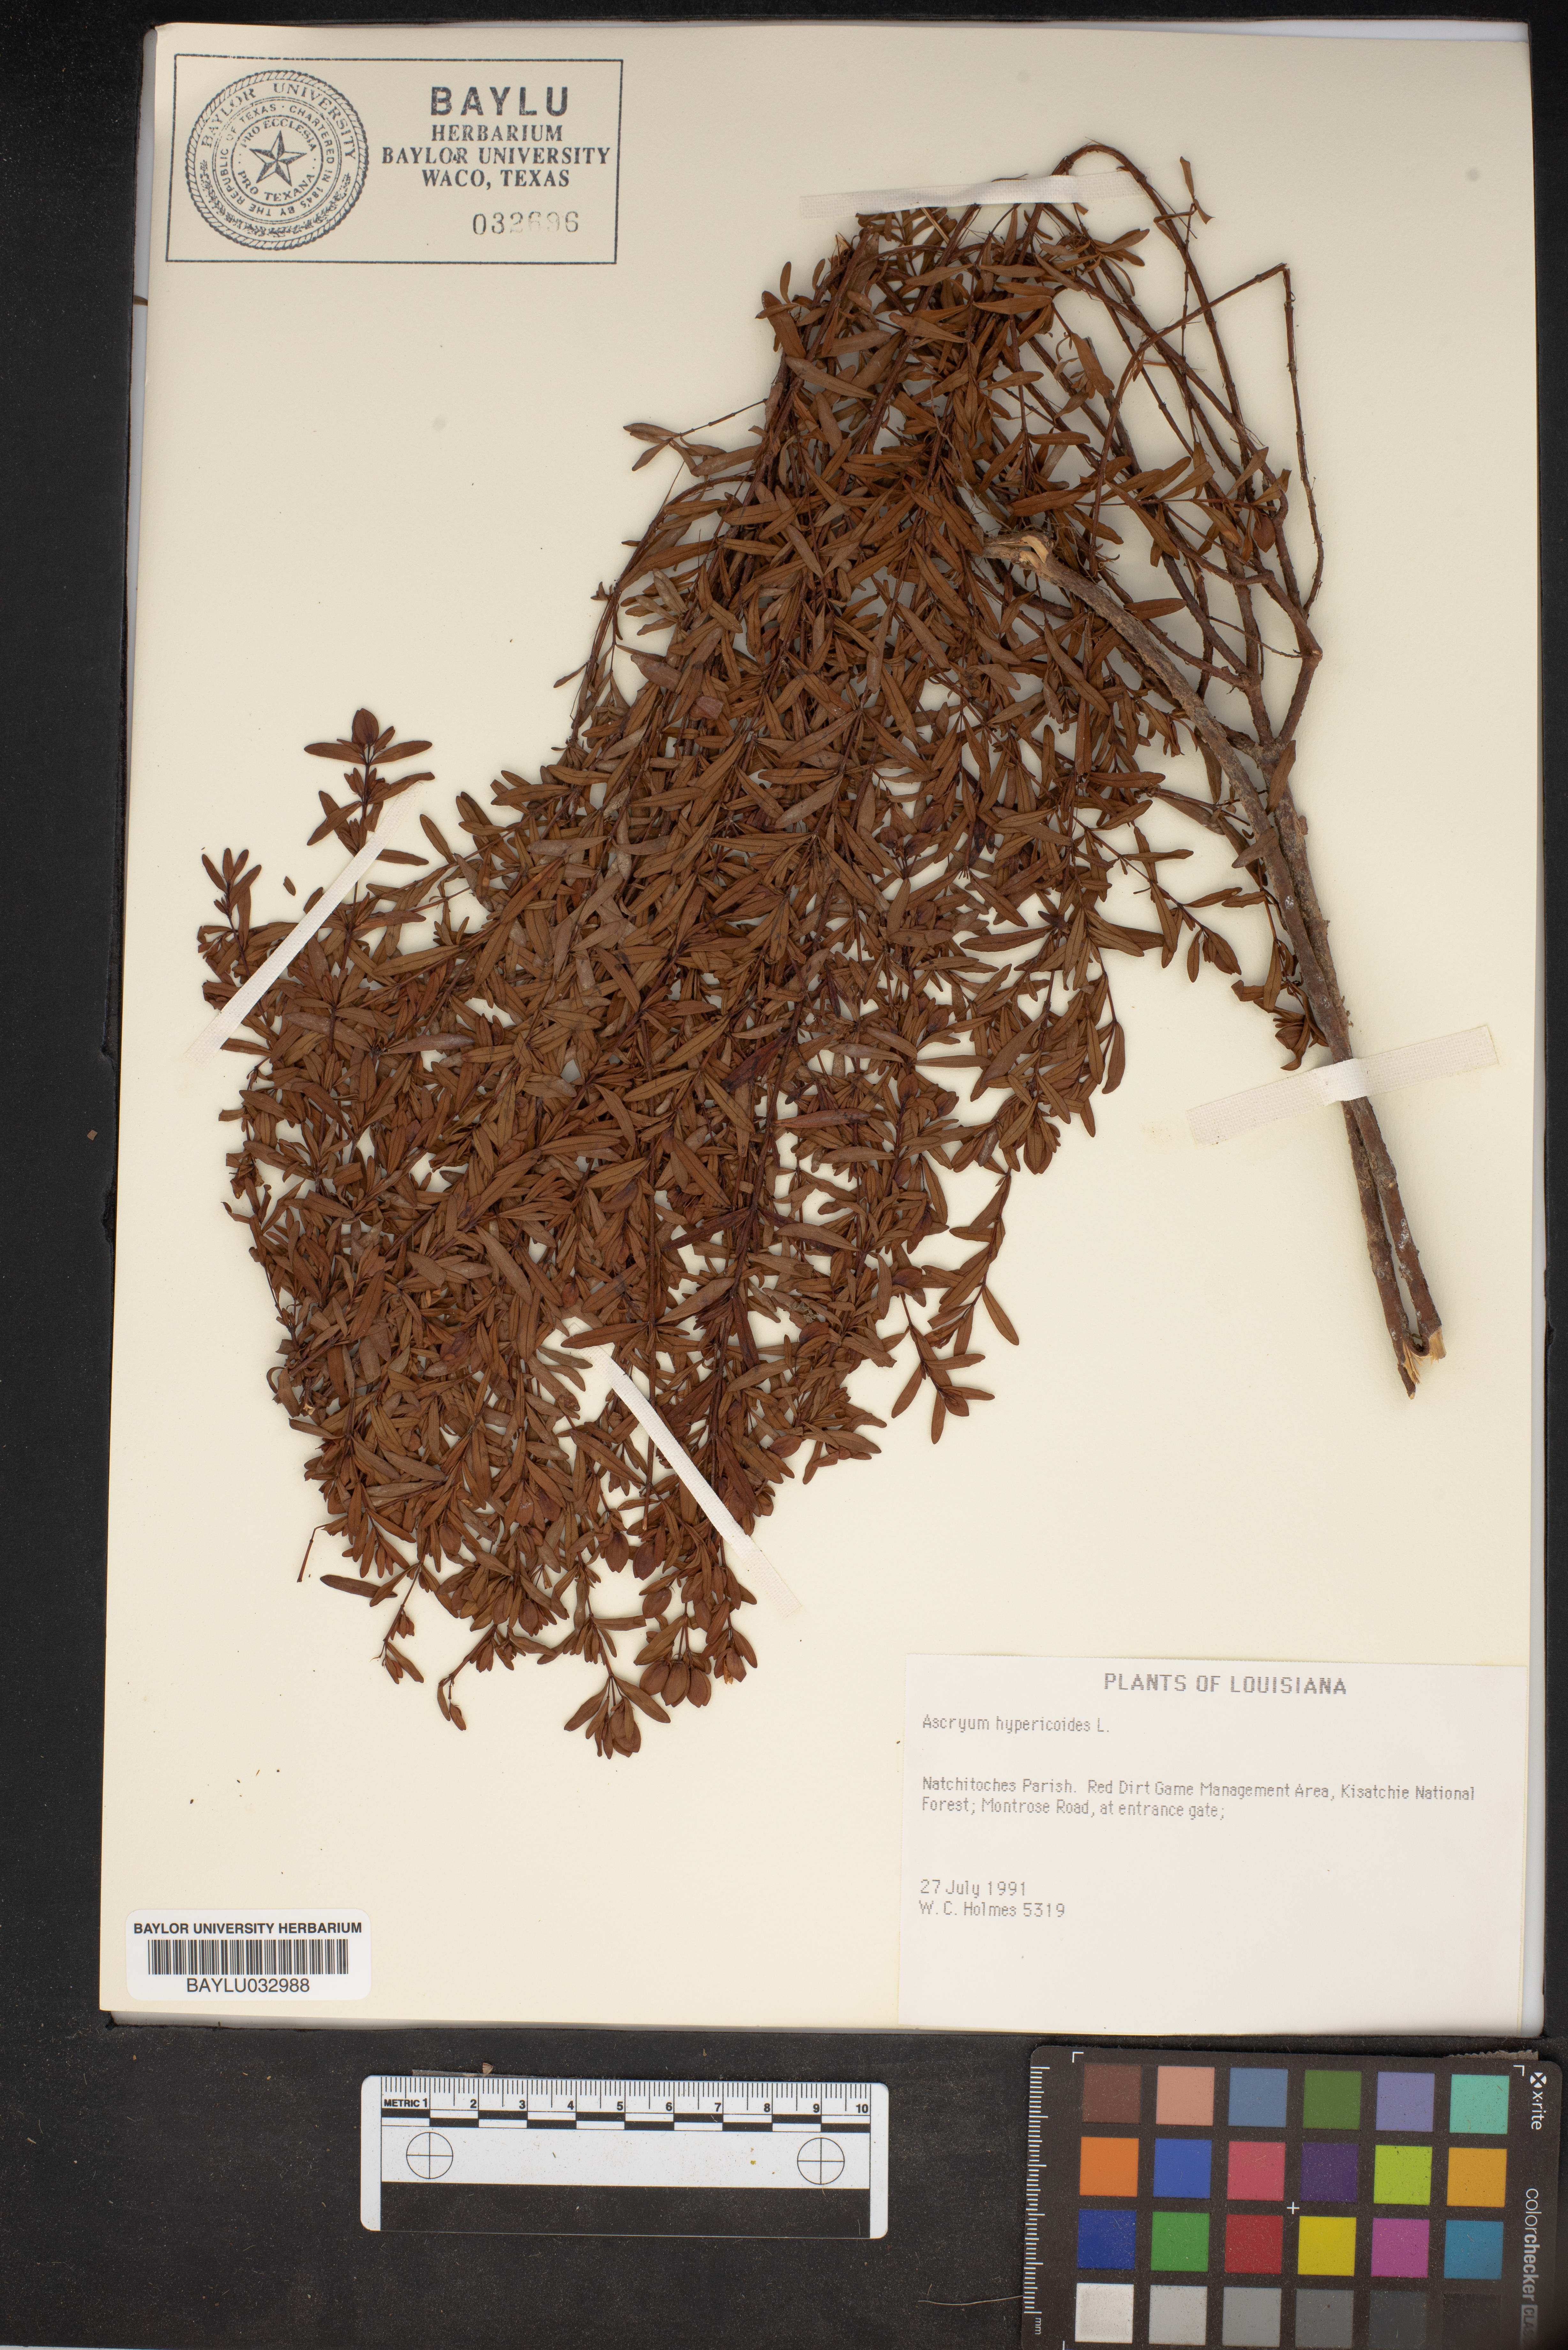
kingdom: Plantae
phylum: Tracheophyta
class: Magnoliopsida
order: Malpighiales
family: Hypericaceae
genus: Hypericum
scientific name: Hypericum hypericoides
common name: St. andrew's cross
